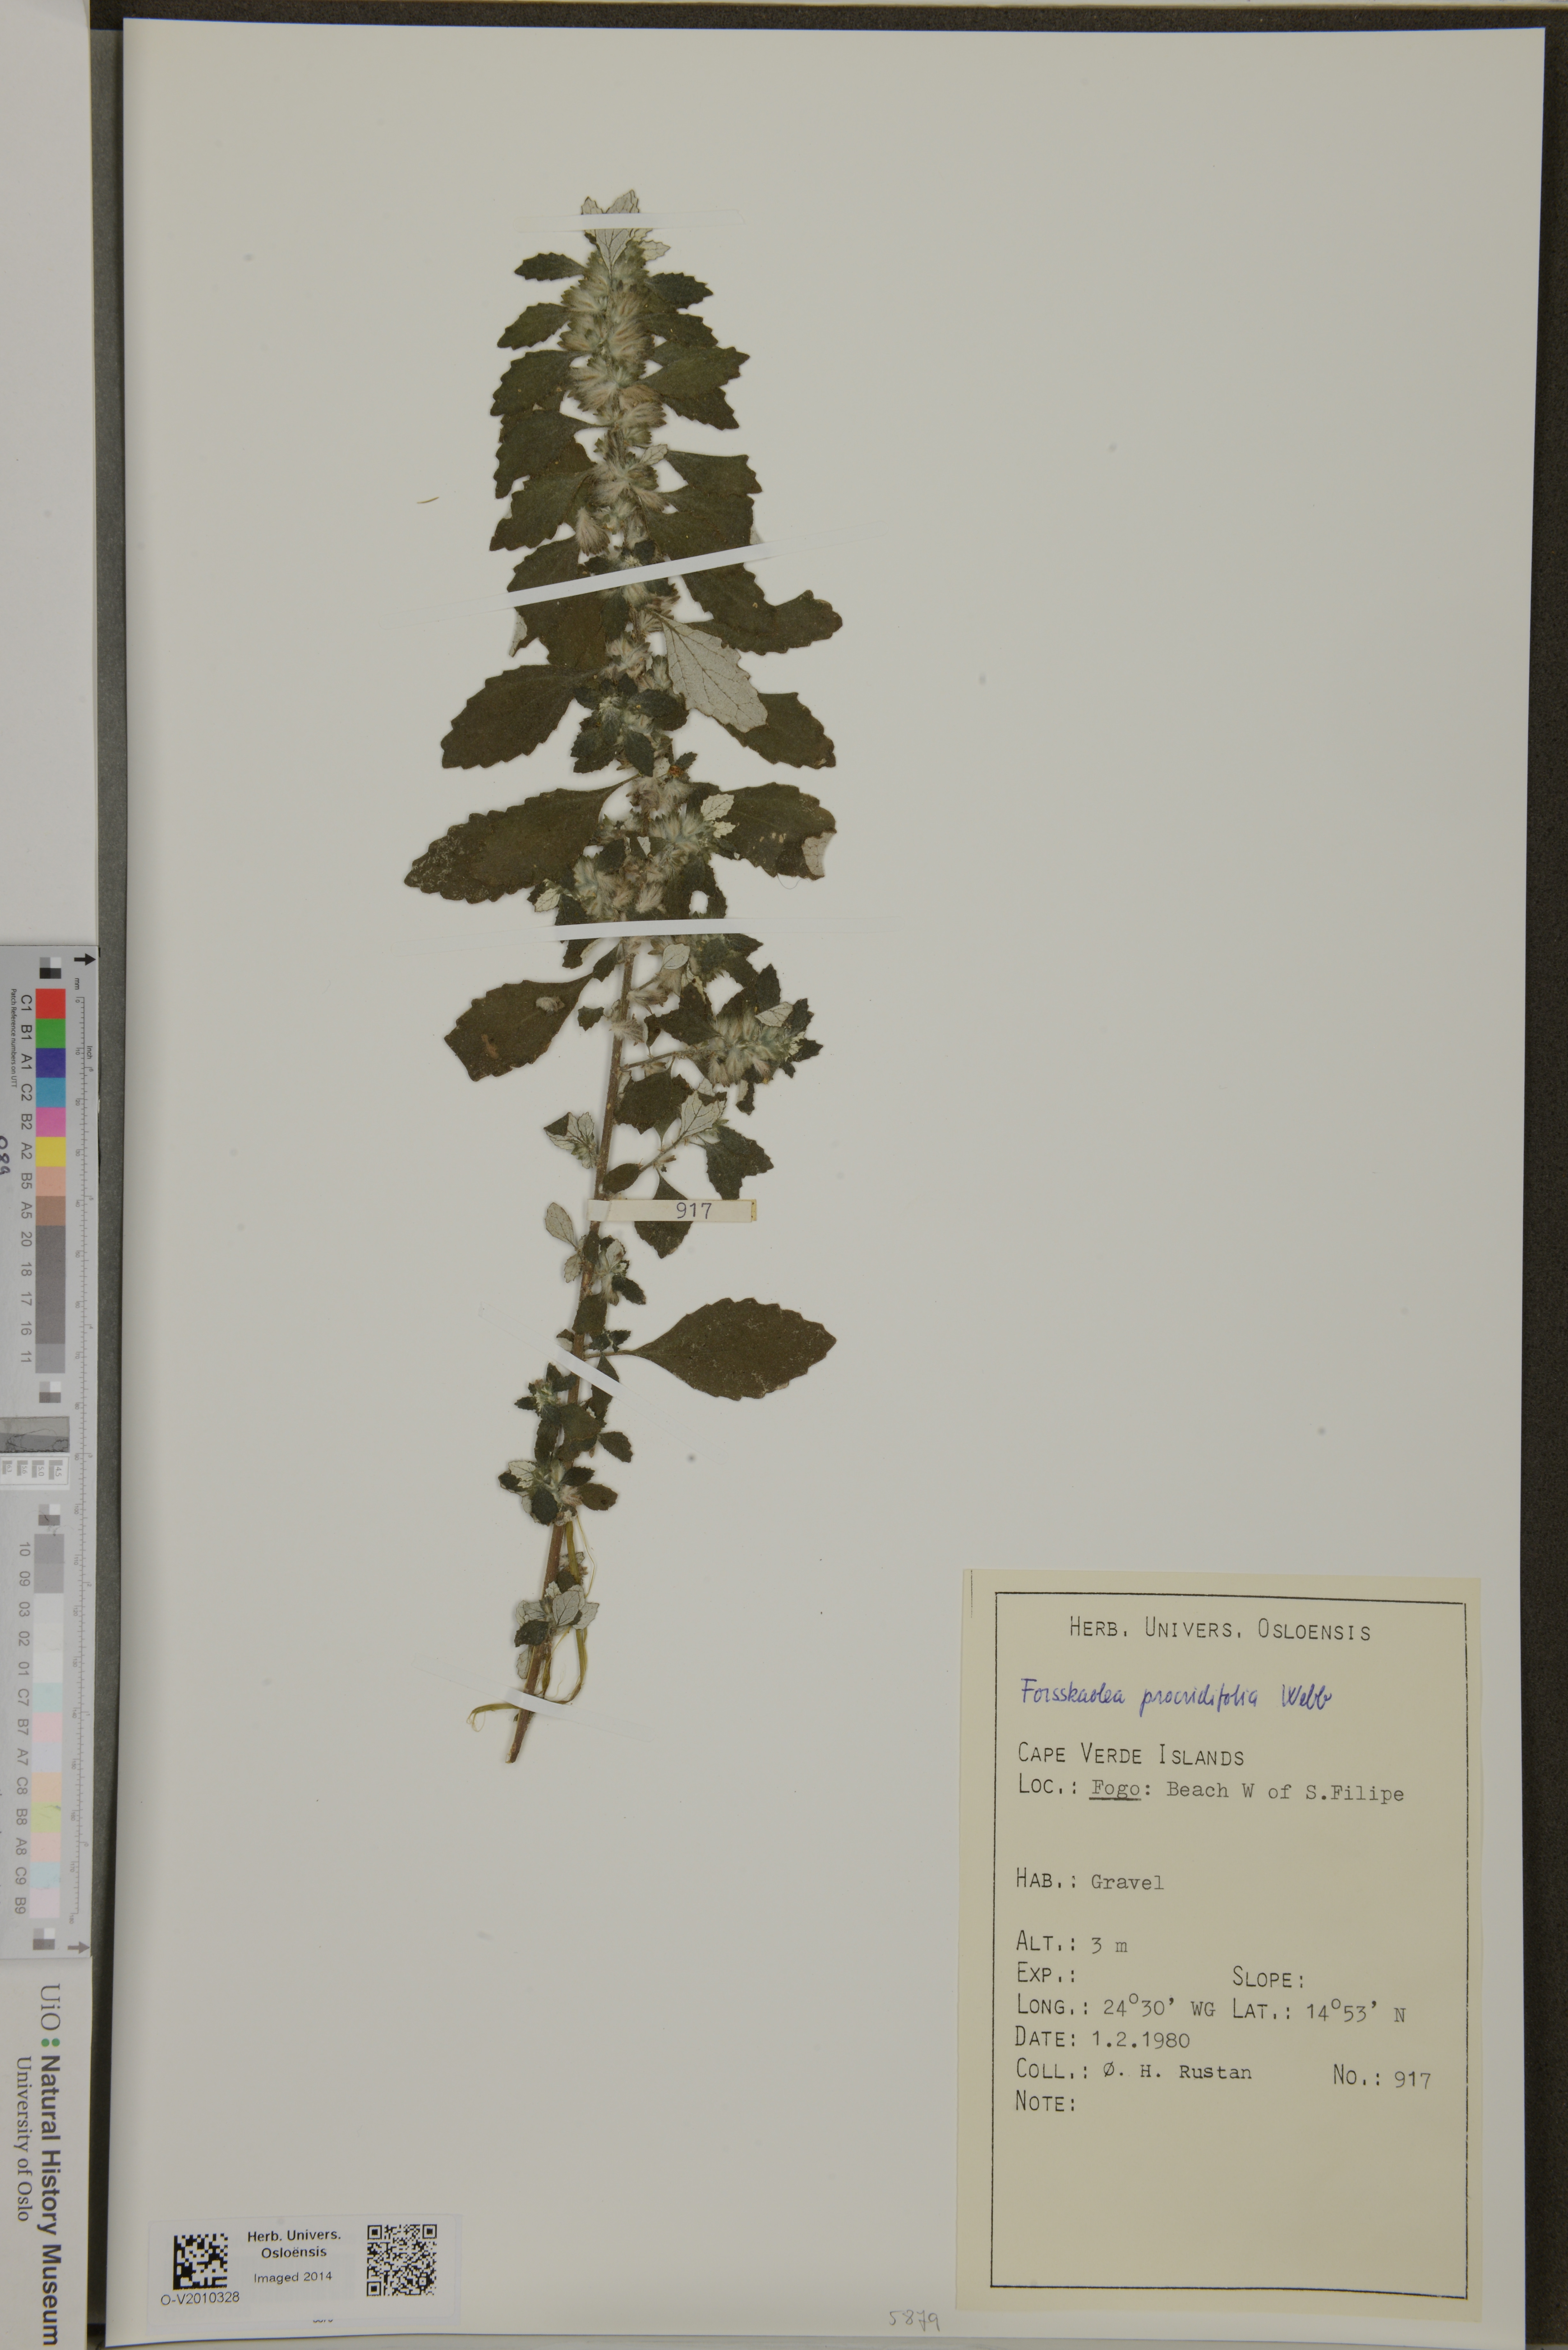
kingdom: Plantae
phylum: Tracheophyta
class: Magnoliopsida
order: Rosales
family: Urticaceae
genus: Forsskaolea
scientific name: Forsskaolea procridifolia
